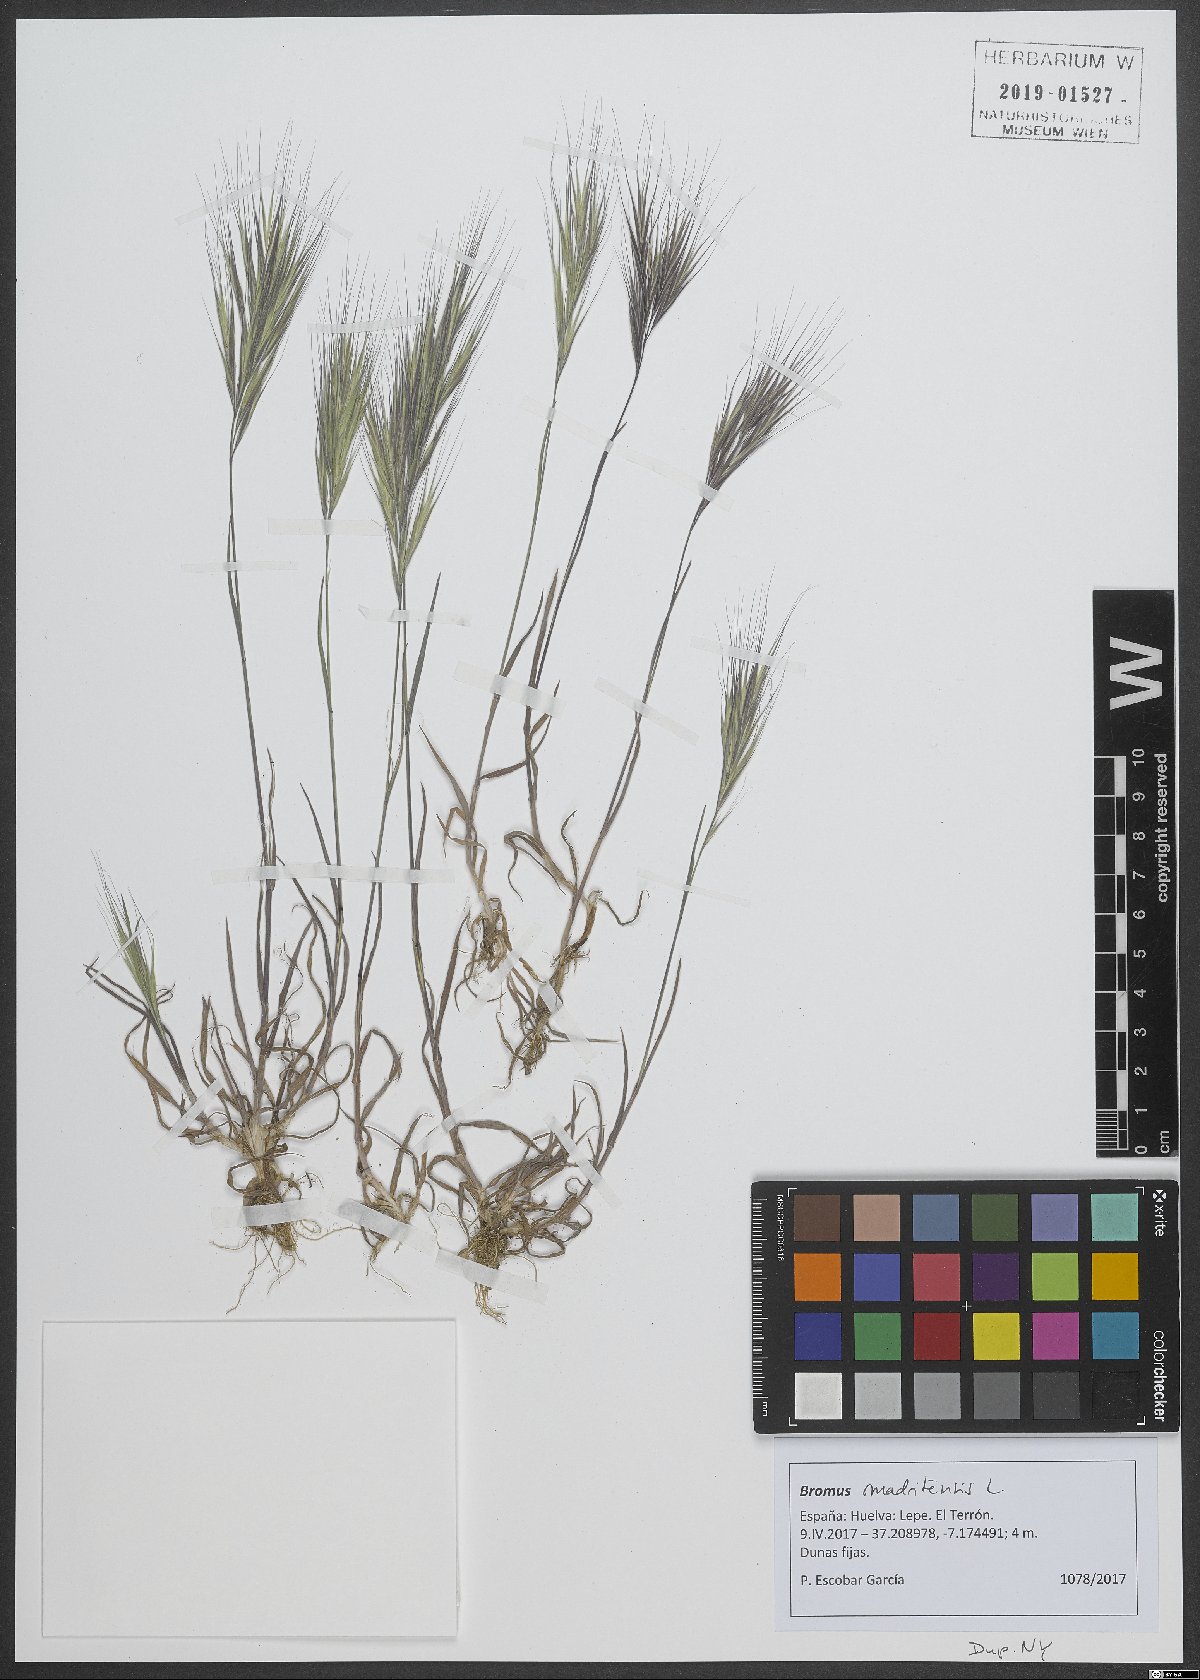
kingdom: Plantae
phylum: Tracheophyta
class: Liliopsida
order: Poales
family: Poaceae
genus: Bromus
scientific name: Bromus madritensis
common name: Compact brome
